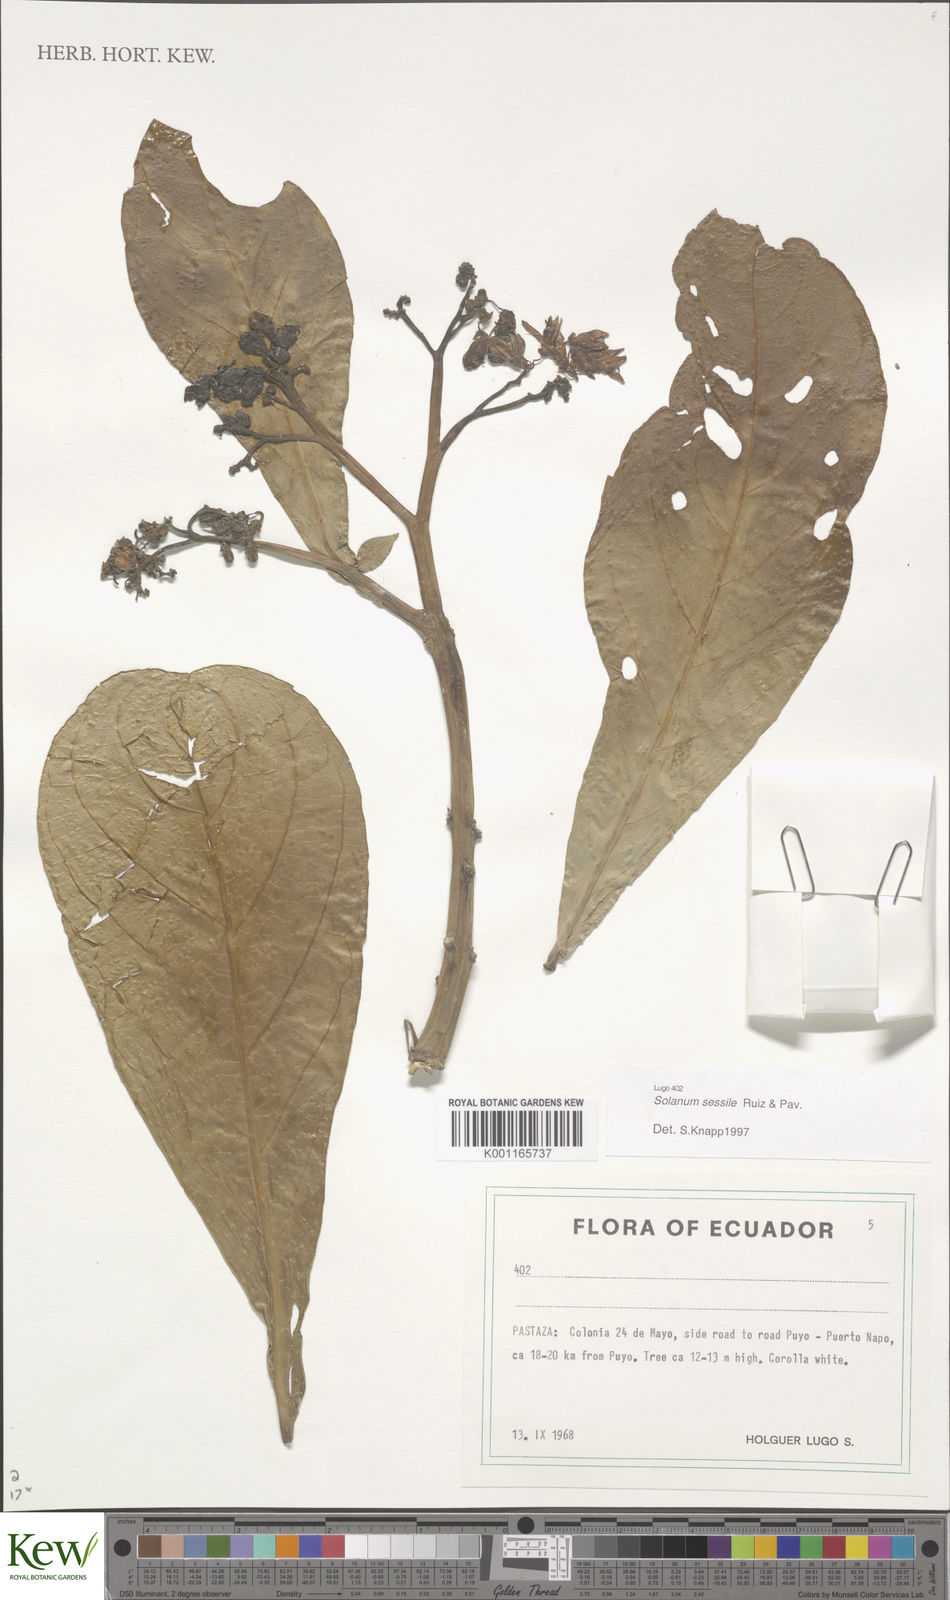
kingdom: Plantae
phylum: Tracheophyta
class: Magnoliopsida
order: Solanales
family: Solanaceae
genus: Solanum
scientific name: Solanum sessile
